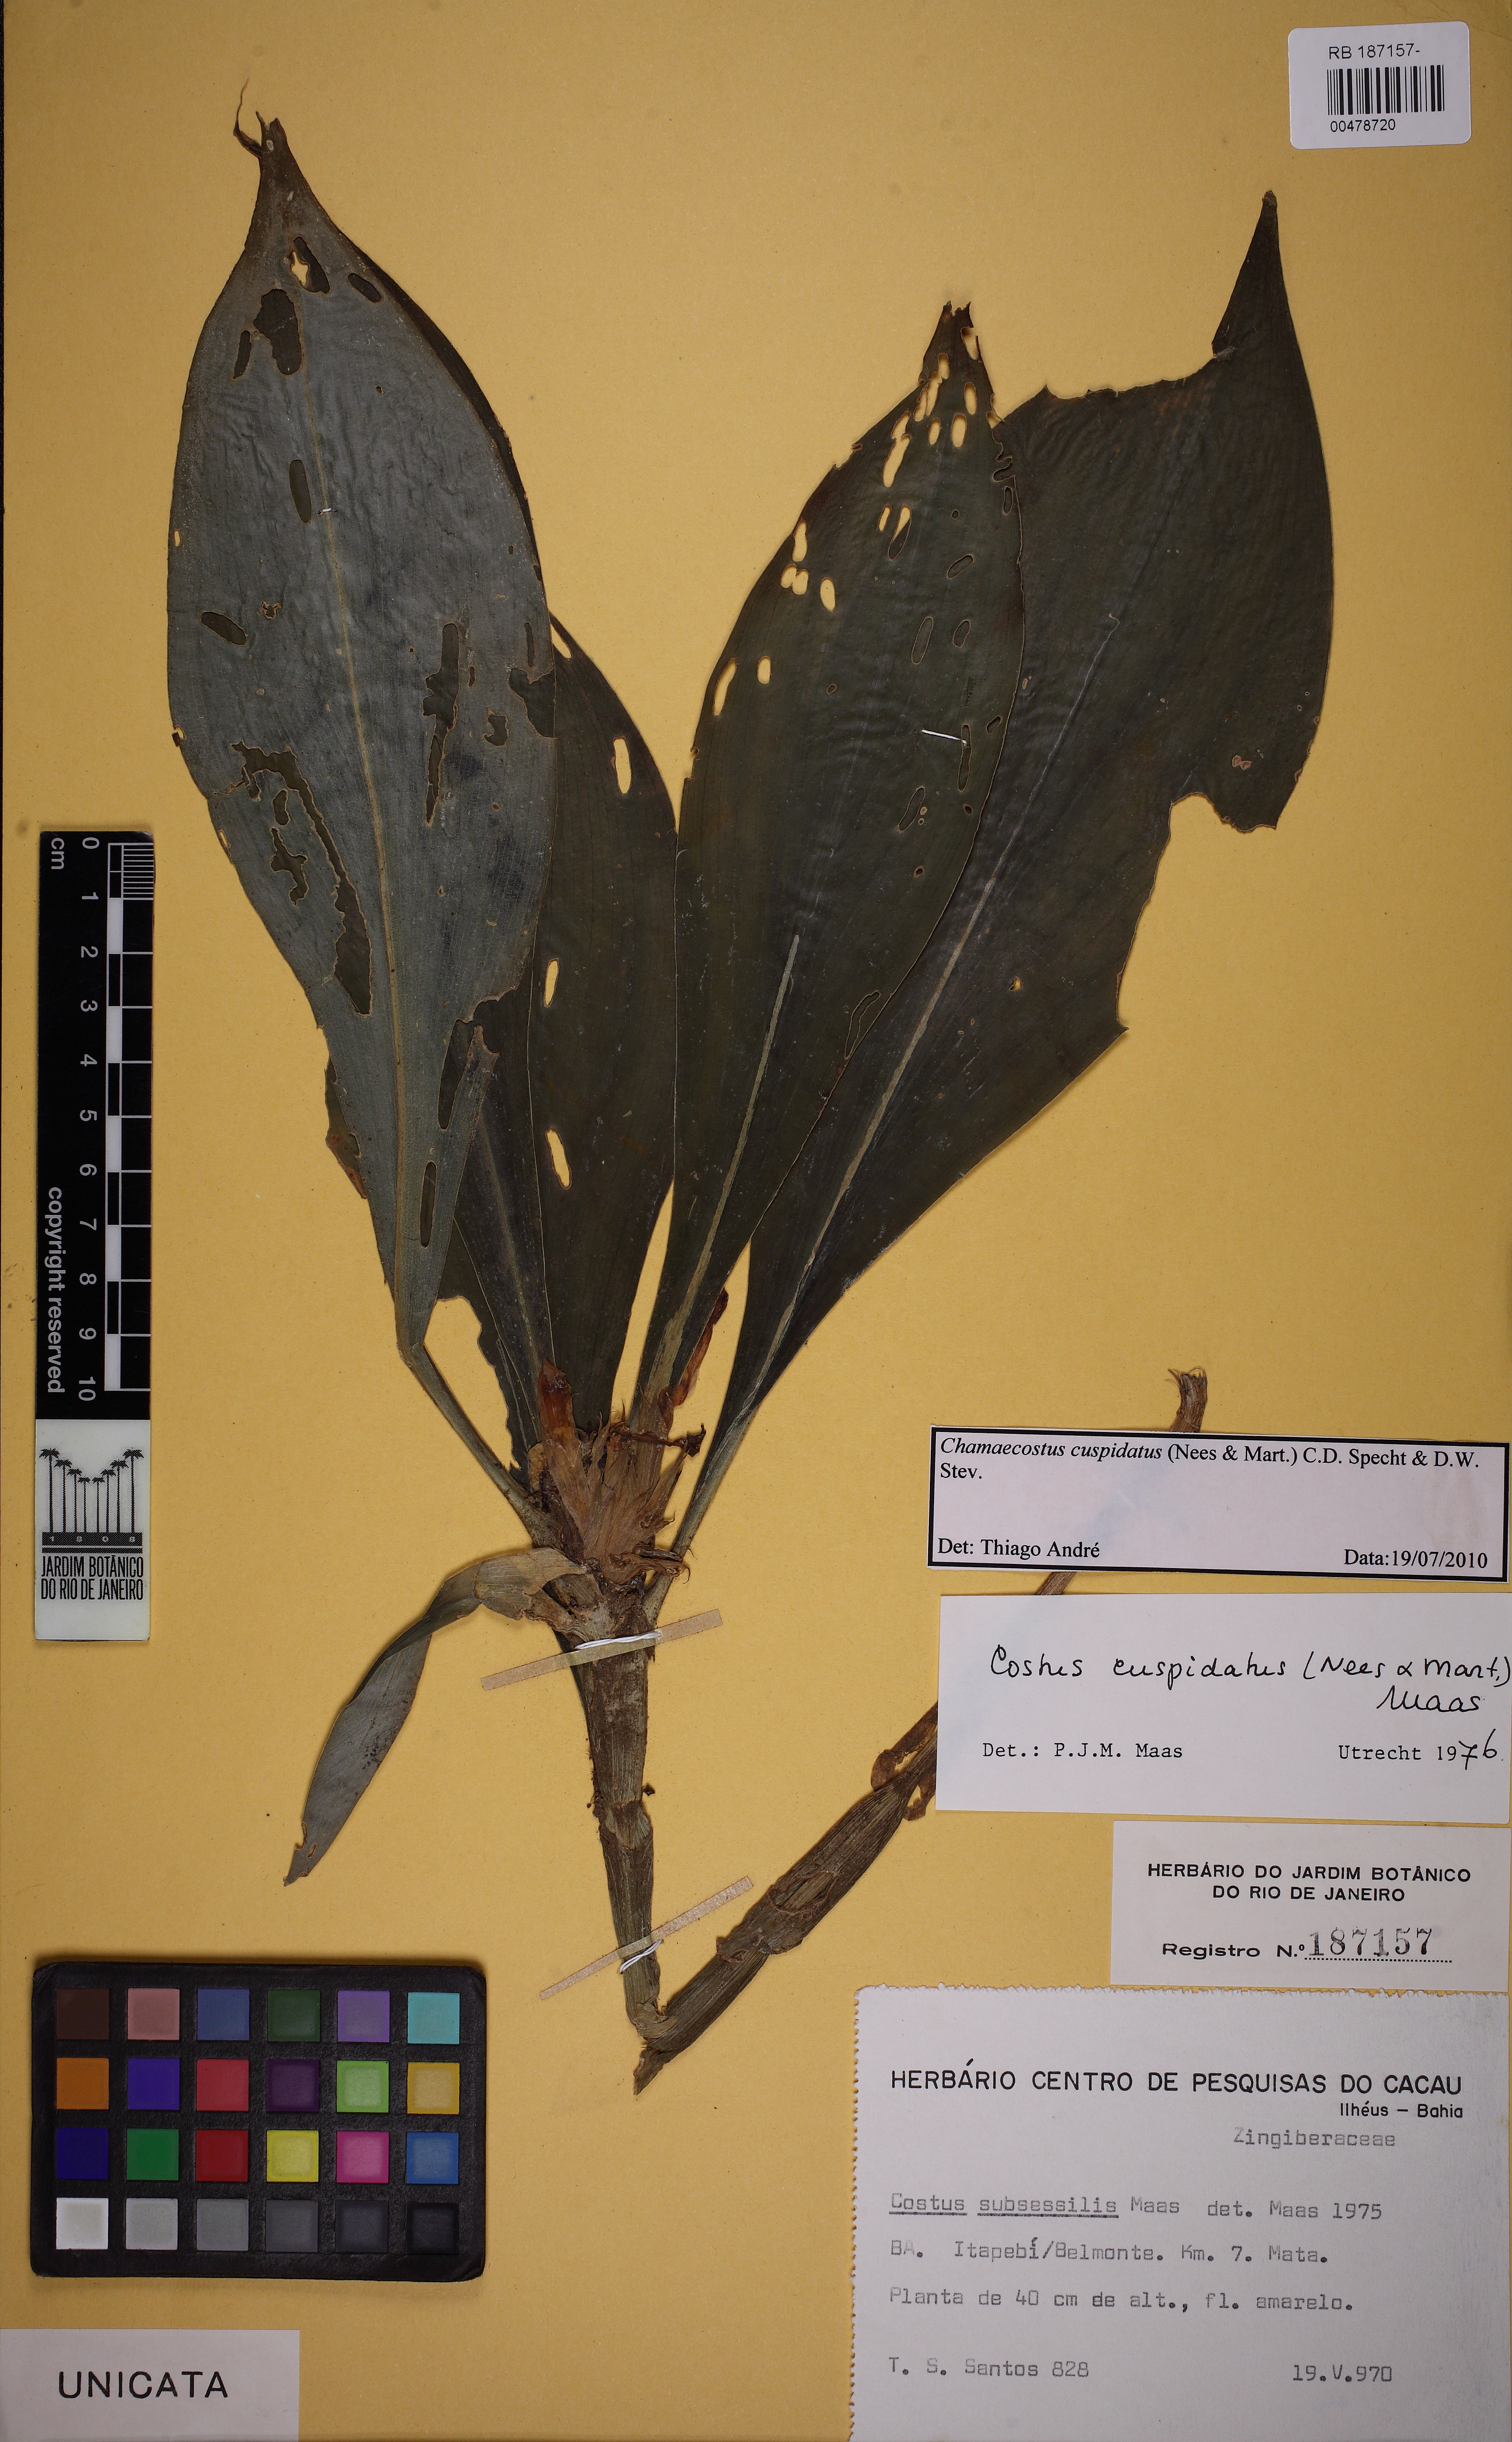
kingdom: Plantae
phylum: Tracheophyta
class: Liliopsida
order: Zingiberales
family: Costaceae
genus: Chamaecostus
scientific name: Chamaecostus cuspidatus
